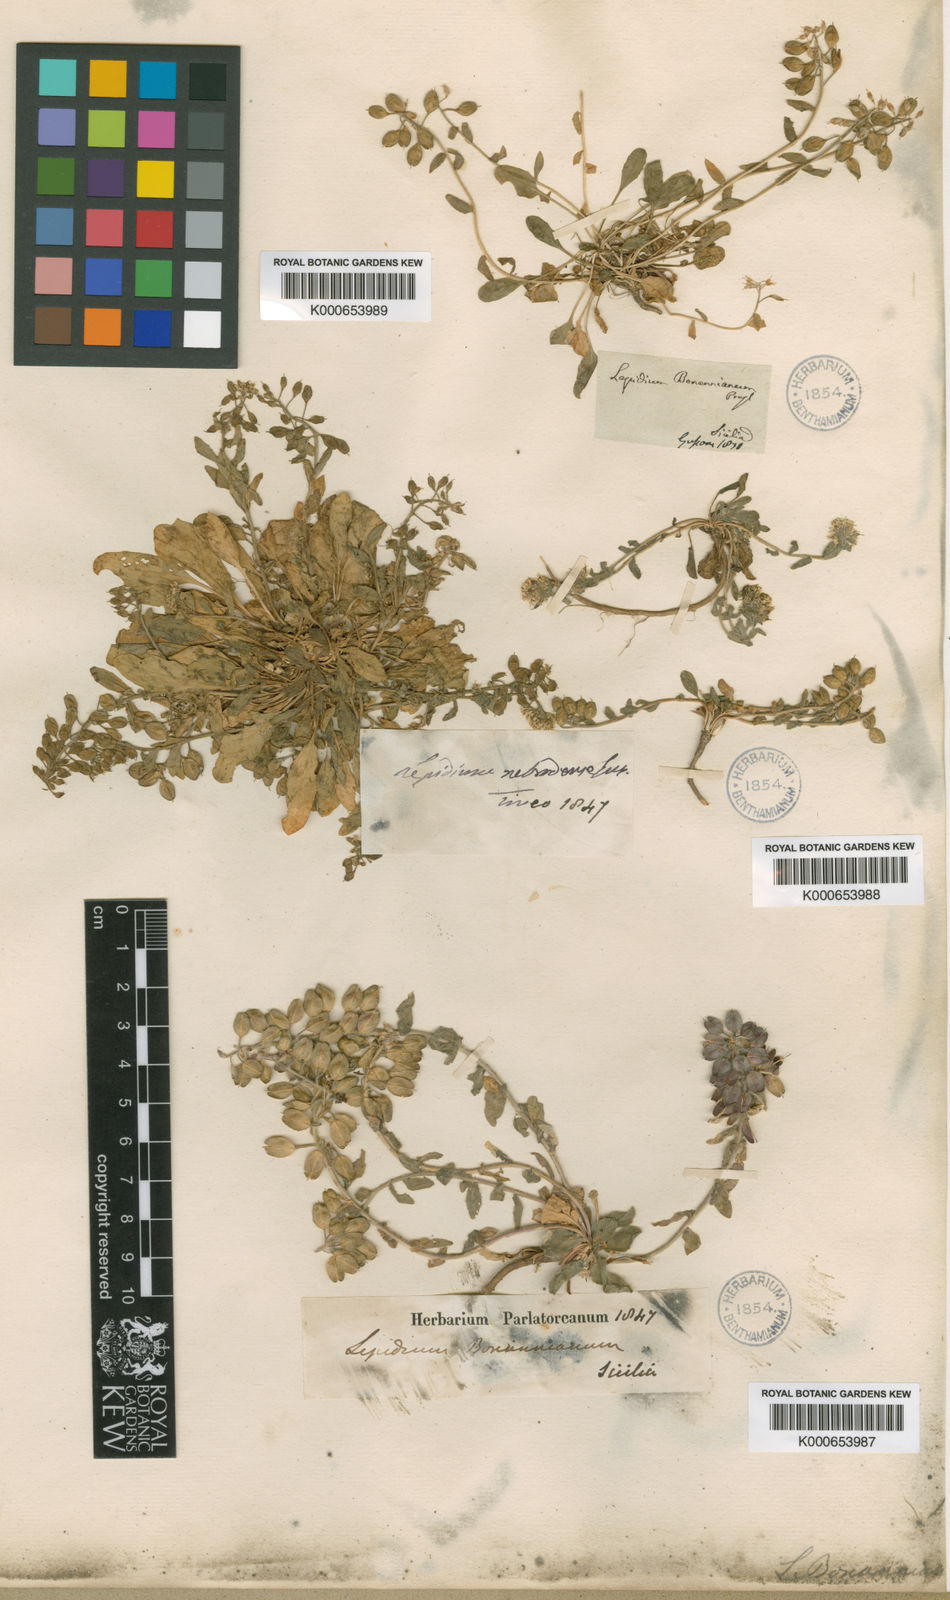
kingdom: Plantae
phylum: Tracheophyta
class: Magnoliopsida
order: Brassicales
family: Brassicaceae
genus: Lepidium
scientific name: Lepidium hirtum
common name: Mediterranean pepperweed
